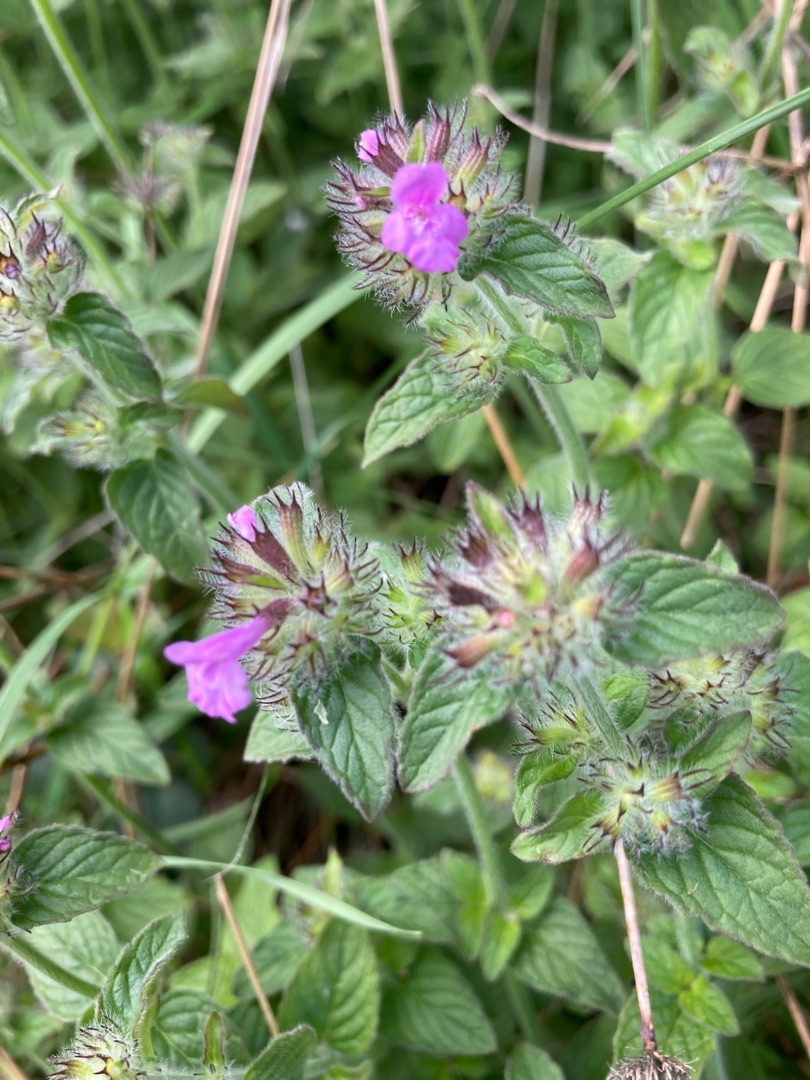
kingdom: Plantae
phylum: Tracheophyta
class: Magnoliopsida
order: Lamiales
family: Lamiaceae
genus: Clinopodium
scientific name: Clinopodium vulgare
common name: Kransbørste
